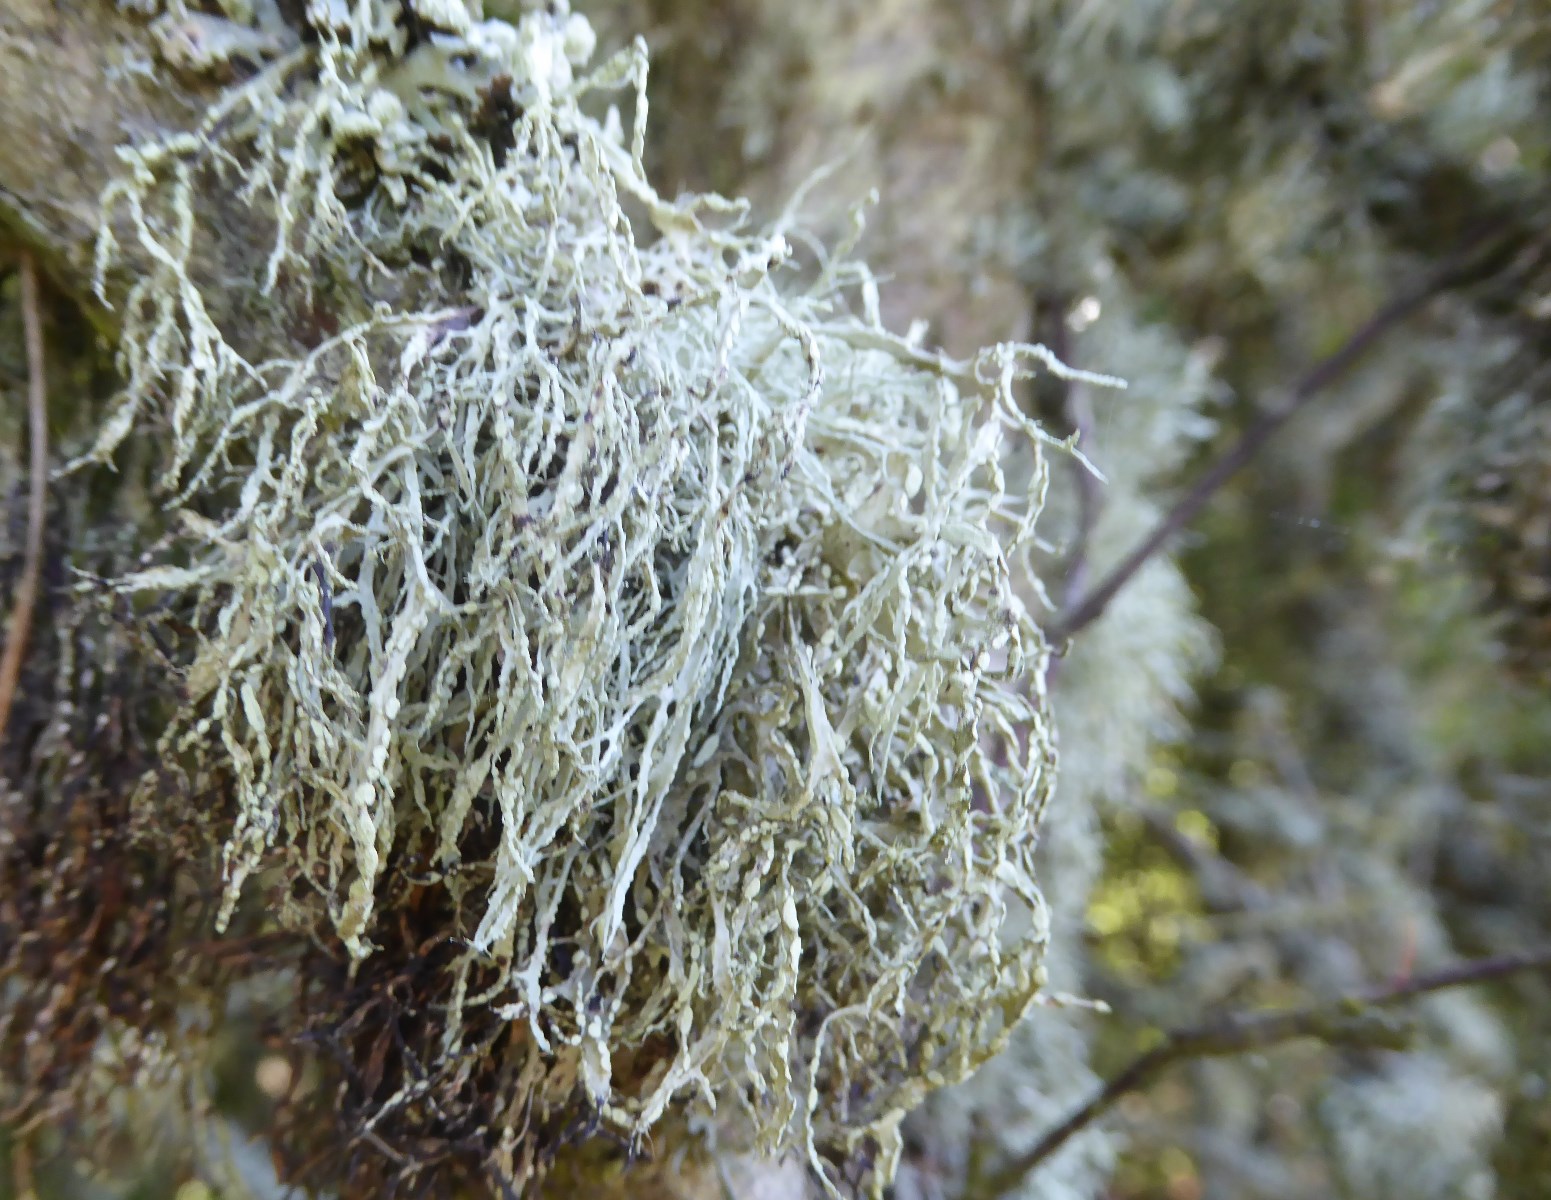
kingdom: Fungi
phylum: Ascomycota
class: Lecanoromycetes
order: Lecanorales
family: Ramalinaceae
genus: Ramalina
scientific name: Ramalina farinacea
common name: melet grenlav
